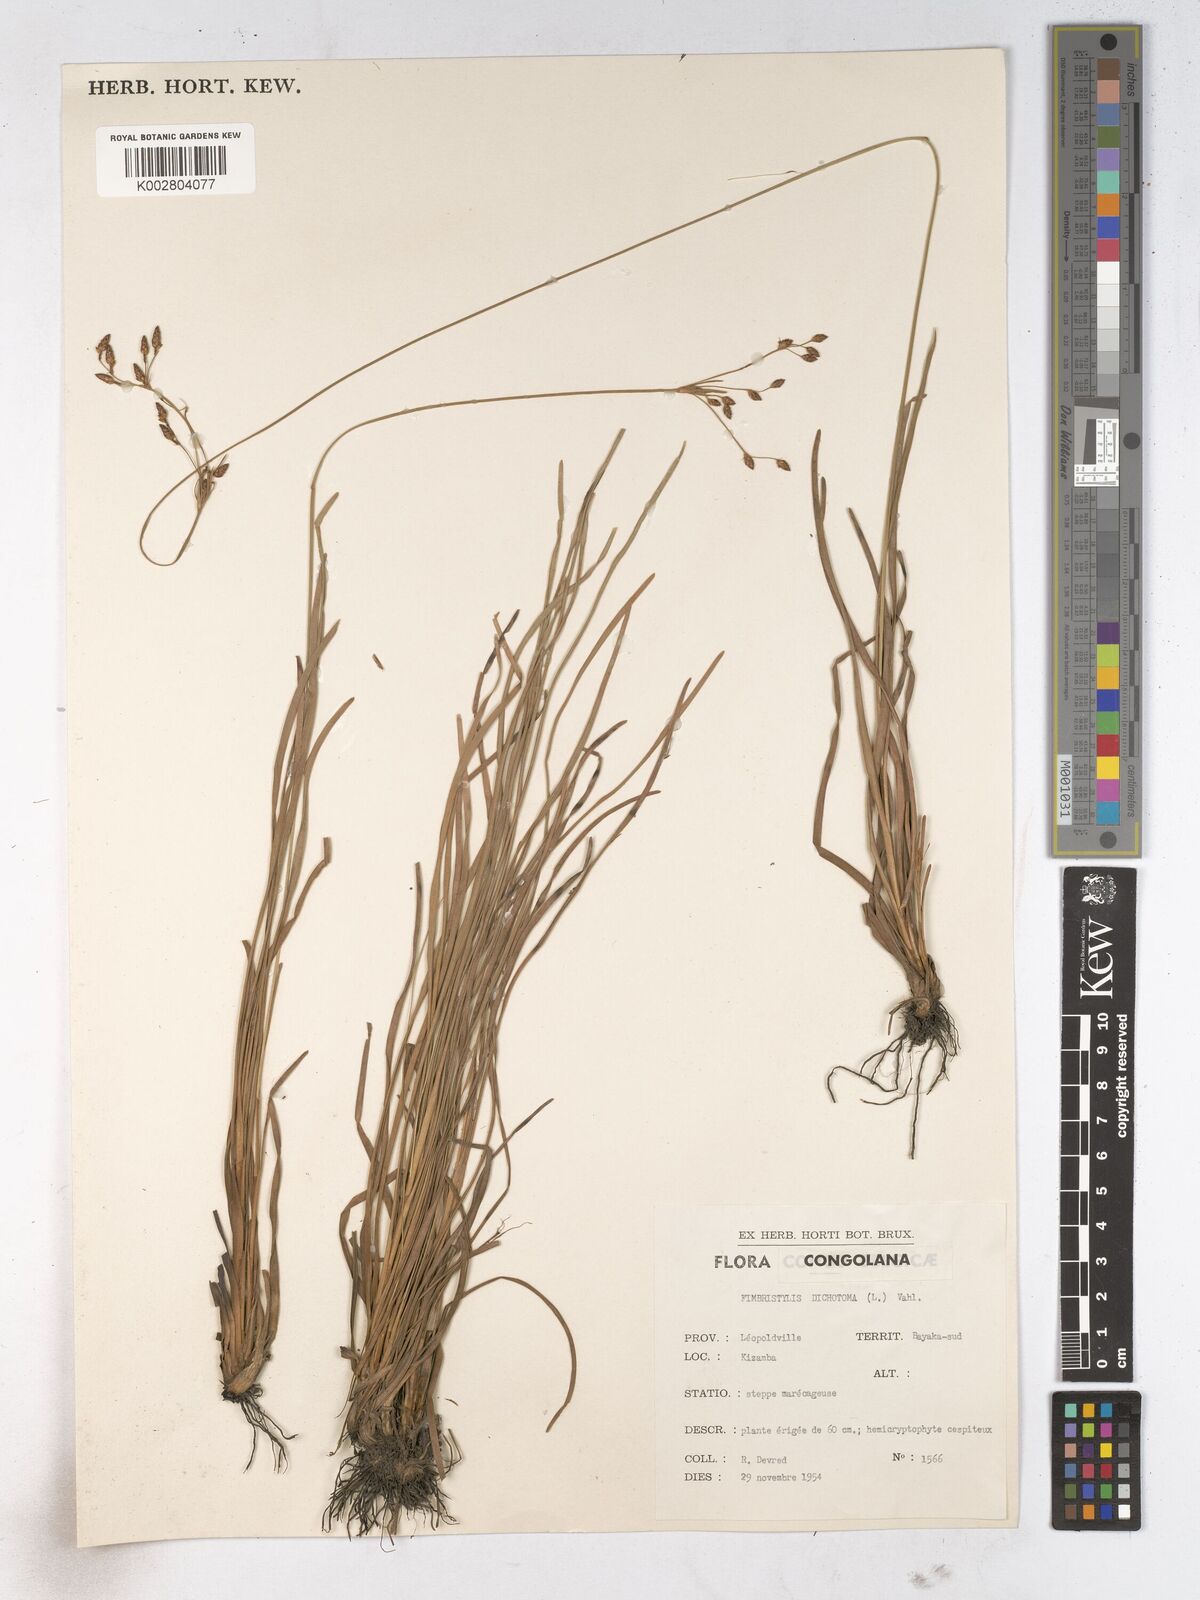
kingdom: Plantae
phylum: Tracheophyta
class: Liliopsida
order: Poales
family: Cyperaceae
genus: Fimbristylis
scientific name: Fimbristylis dichotoma
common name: Forked fimbry
